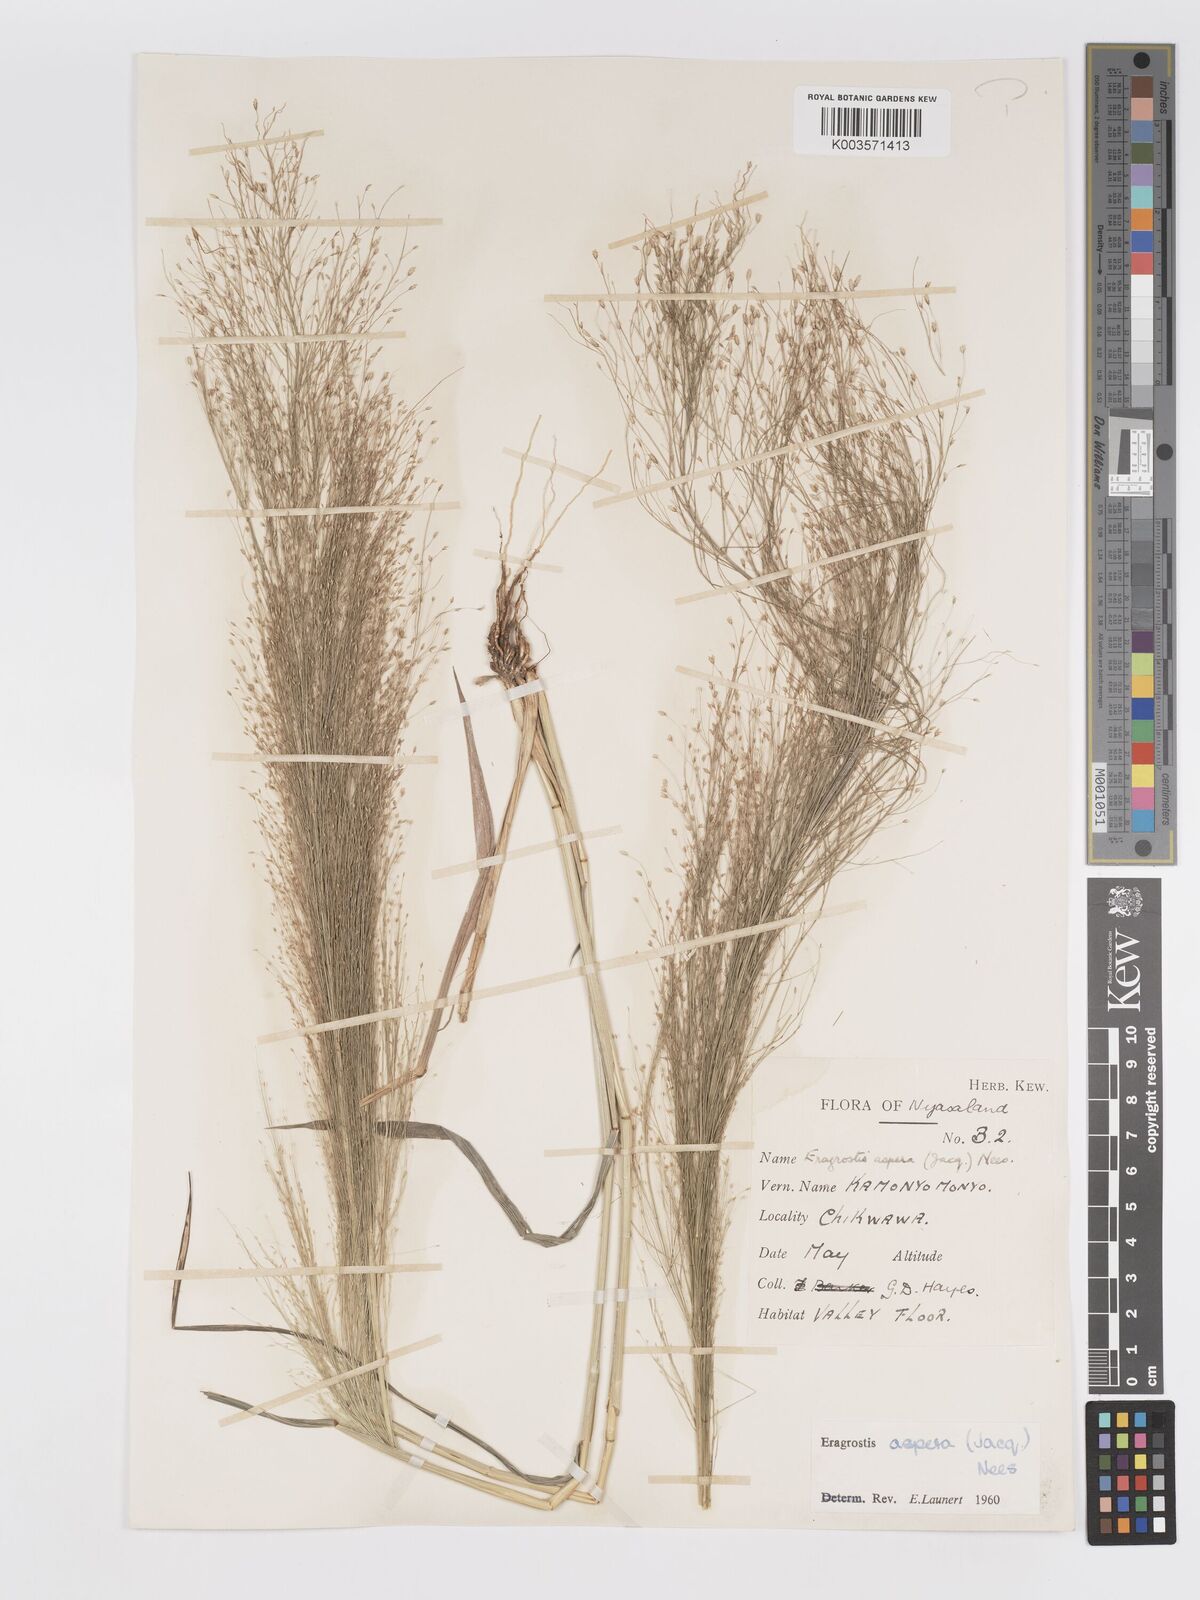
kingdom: Plantae
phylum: Tracheophyta
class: Liliopsida
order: Poales
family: Poaceae
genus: Eragrostis
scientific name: Eragrostis aspera
